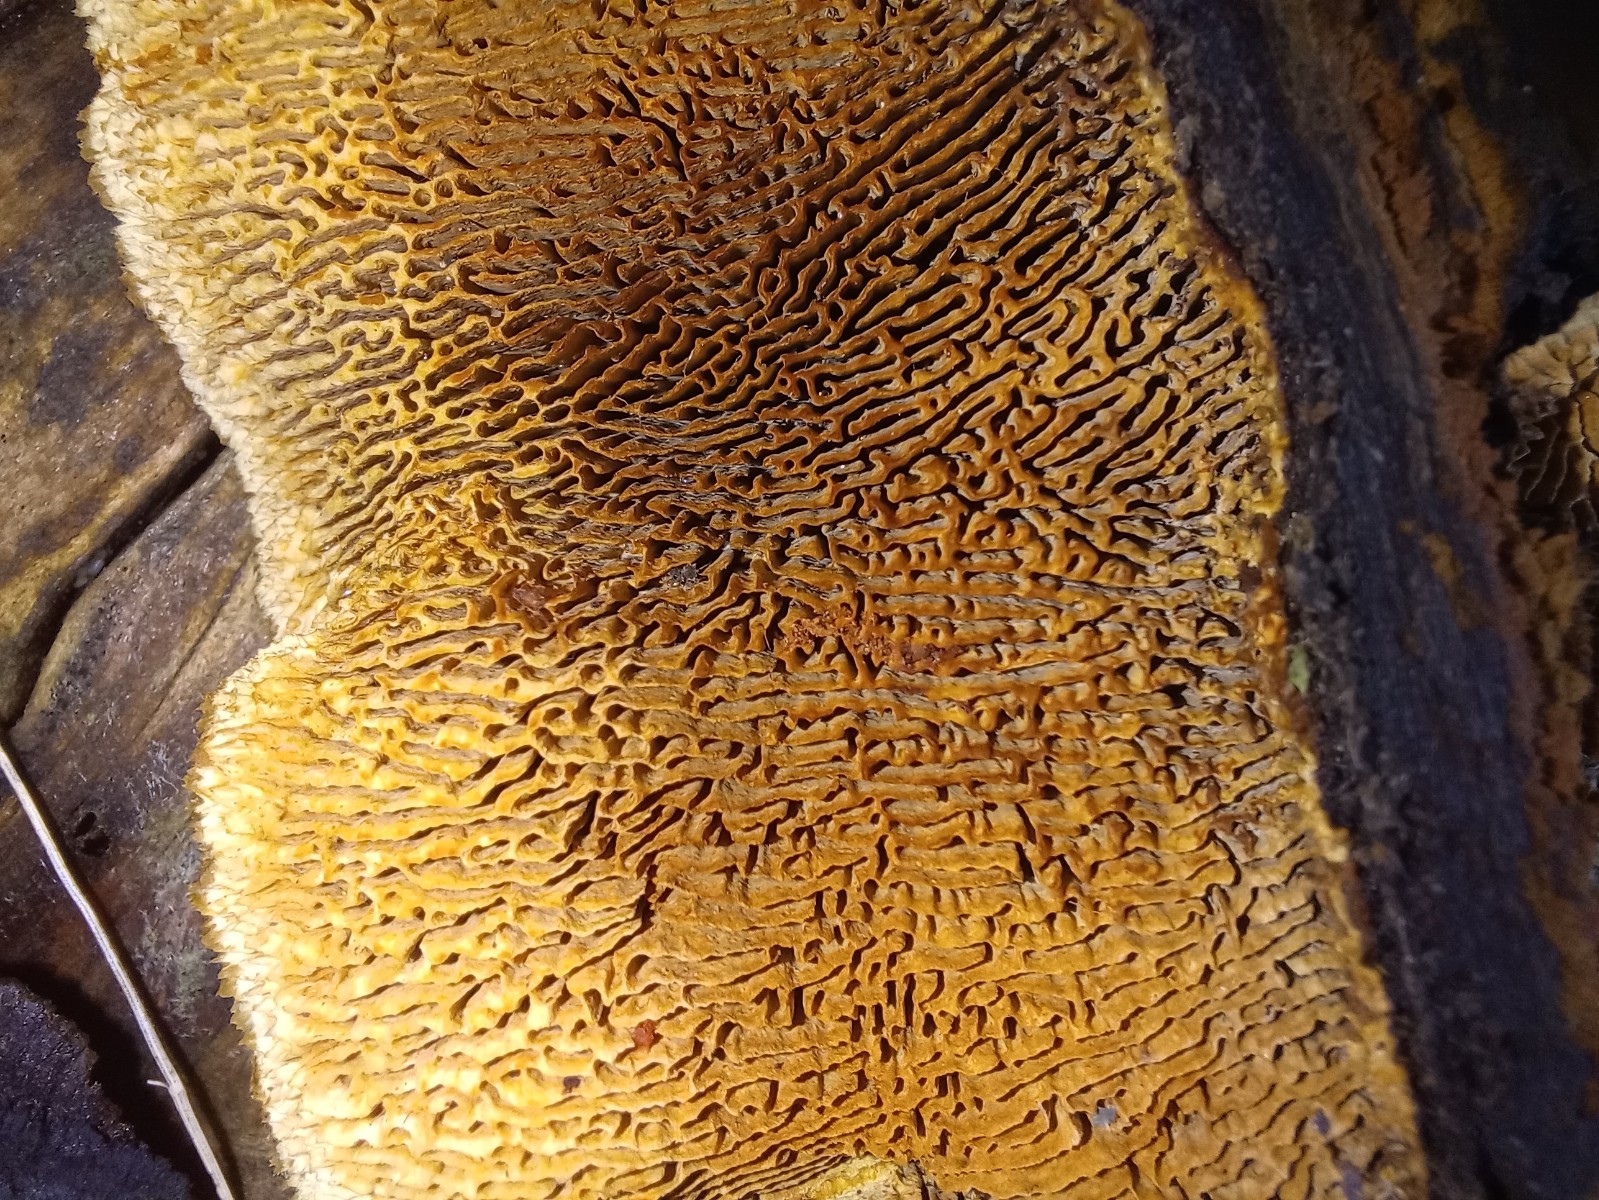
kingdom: Fungi
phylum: Basidiomycota
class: Agaricomycetes
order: Gloeophyllales
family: Gloeophyllaceae
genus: Gloeophyllum
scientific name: Gloeophyllum sepiarium
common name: fyrre-korkhat
